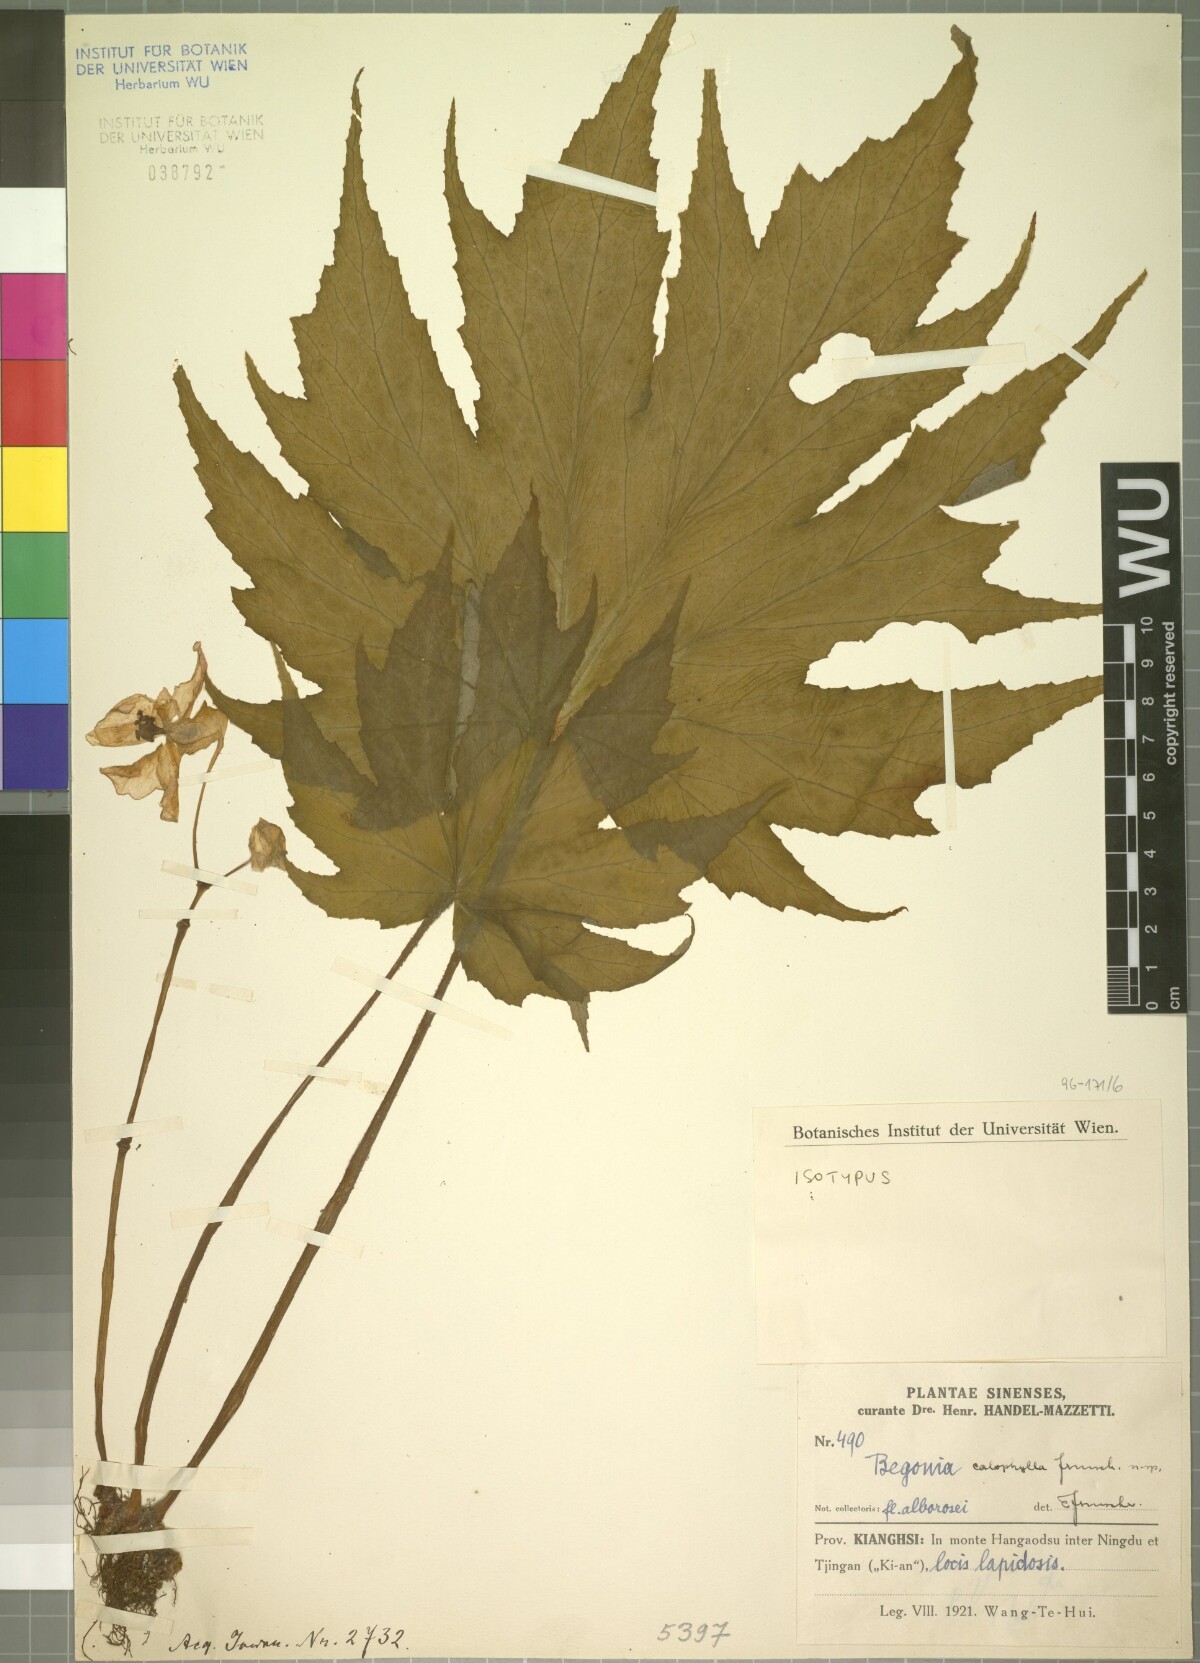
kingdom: Plantae
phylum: Tracheophyta
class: Magnoliopsida
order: Cucurbitales
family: Begoniaceae
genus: Begonia
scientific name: Begonia algaia
